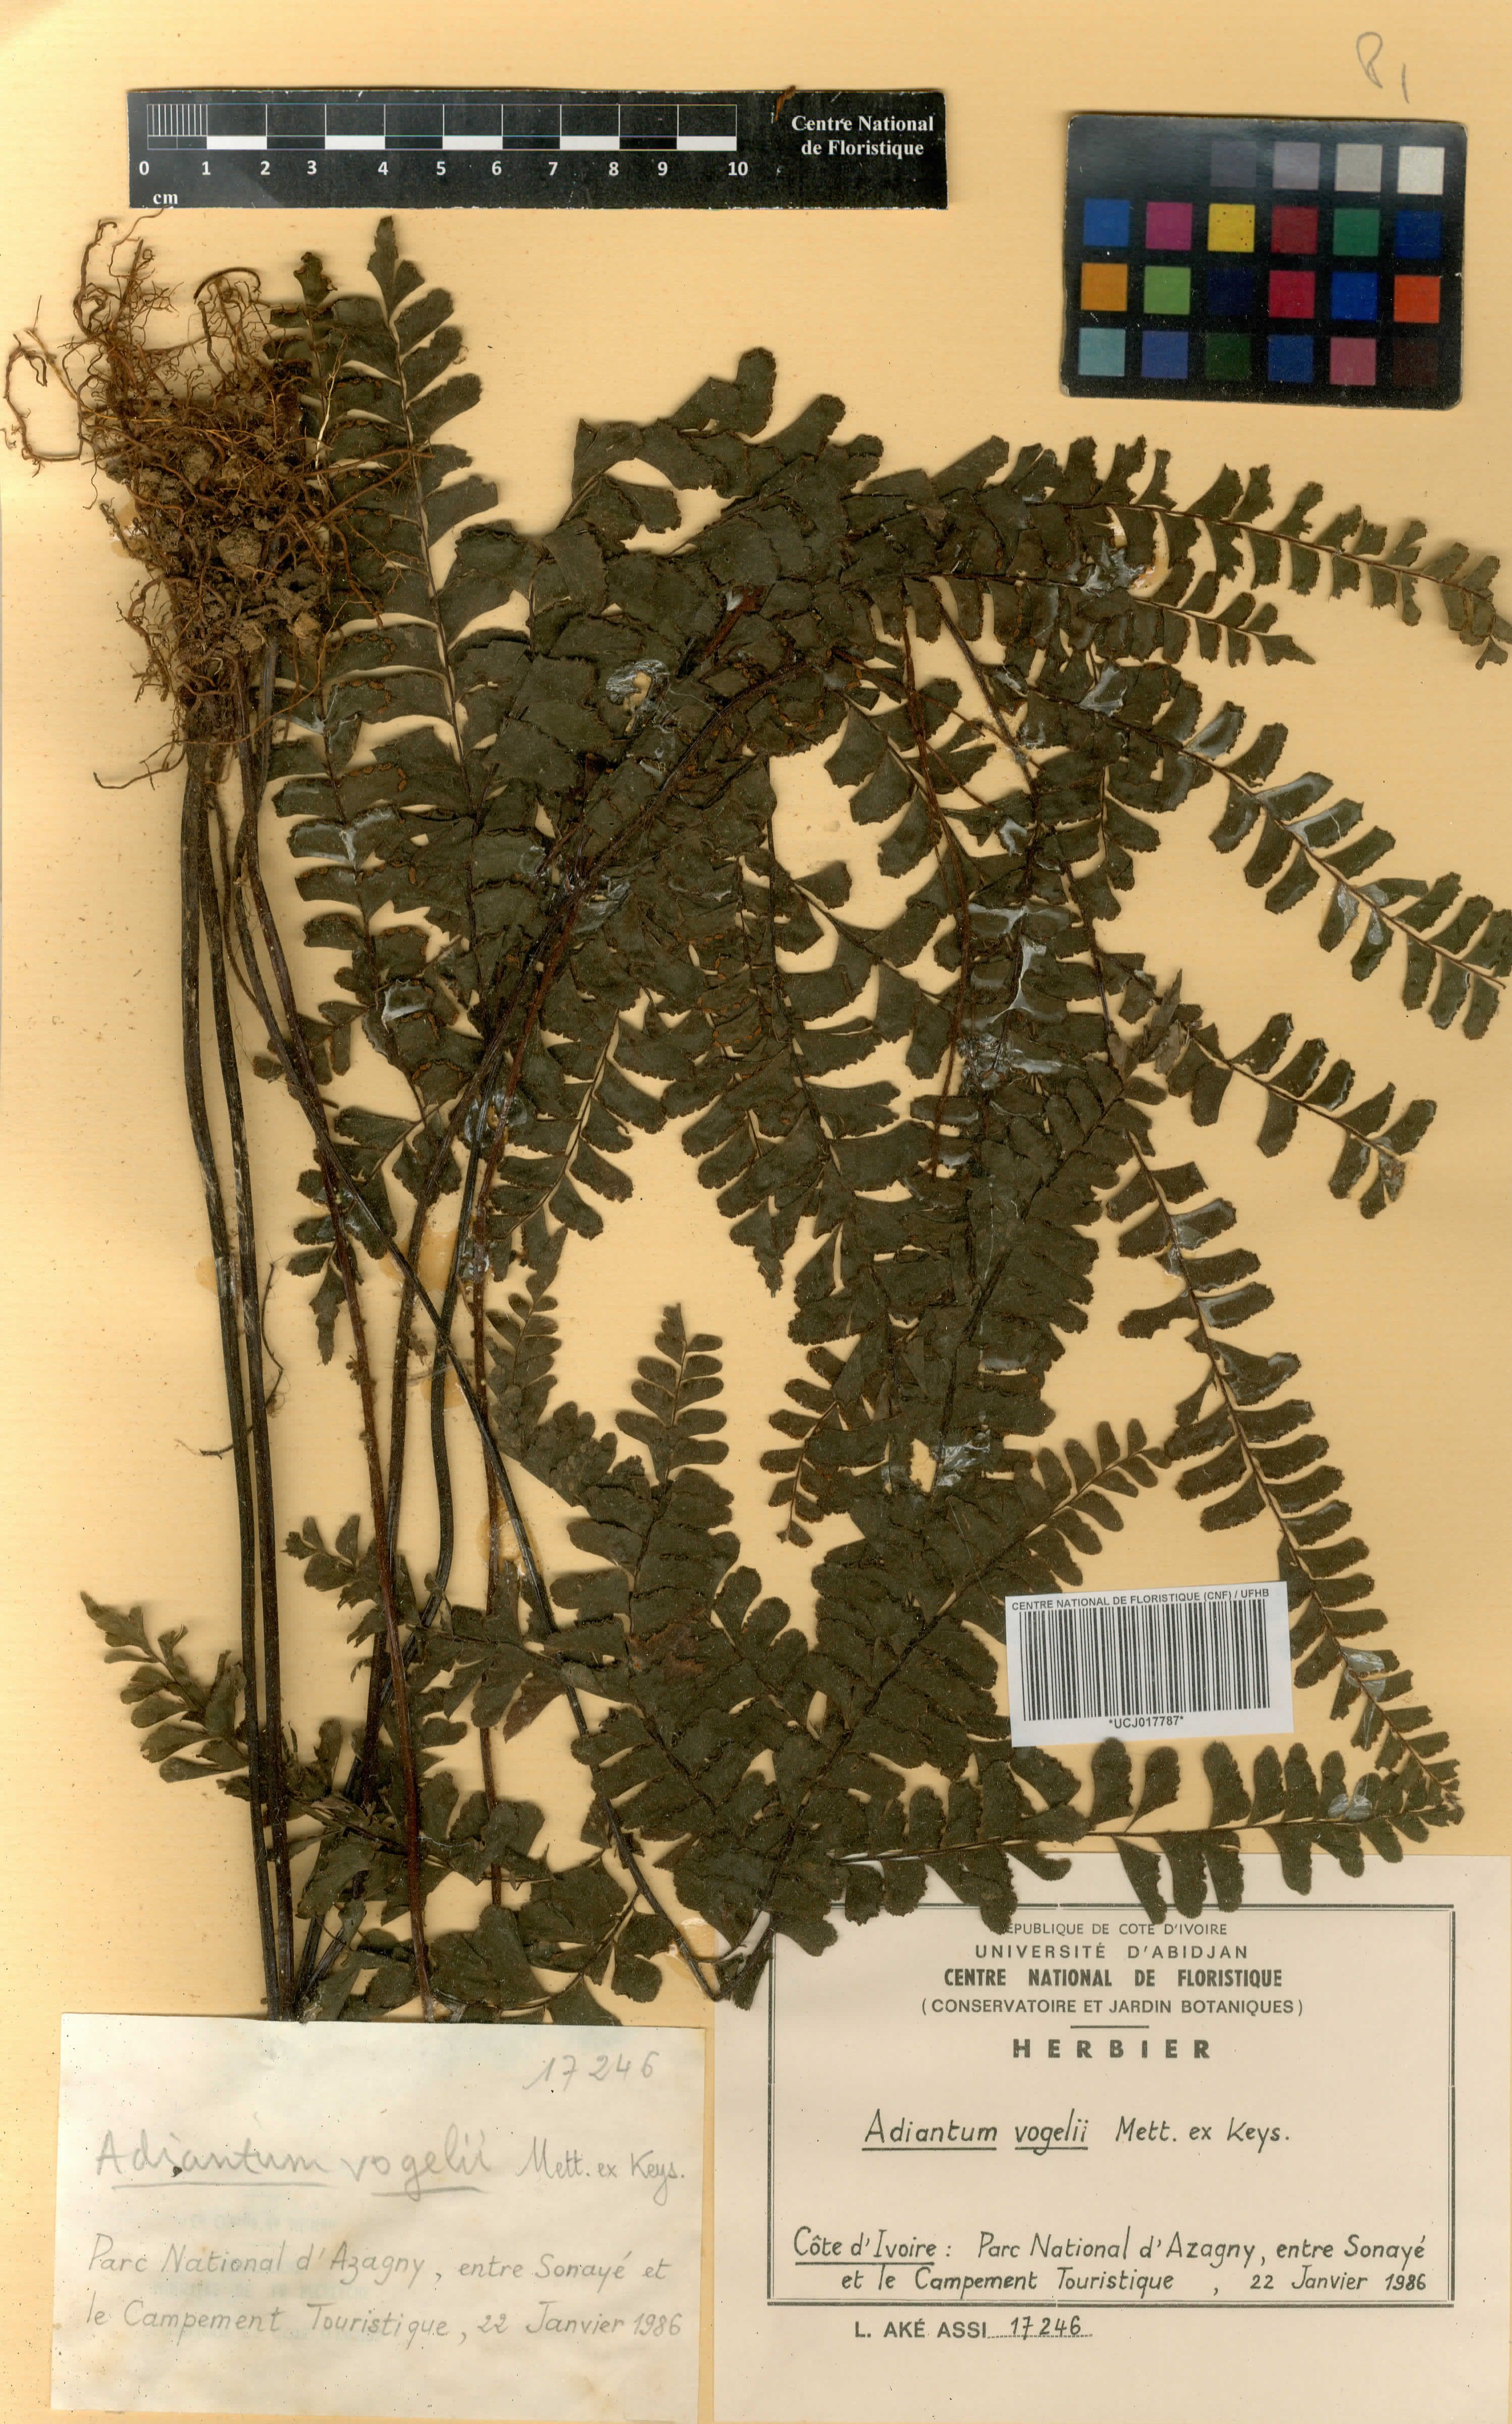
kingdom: Plantae
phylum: Tracheophyta
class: Polypodiopsida
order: Polypodiales
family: Pteridaceae
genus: Adiantum
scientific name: Adiantum vogelii
